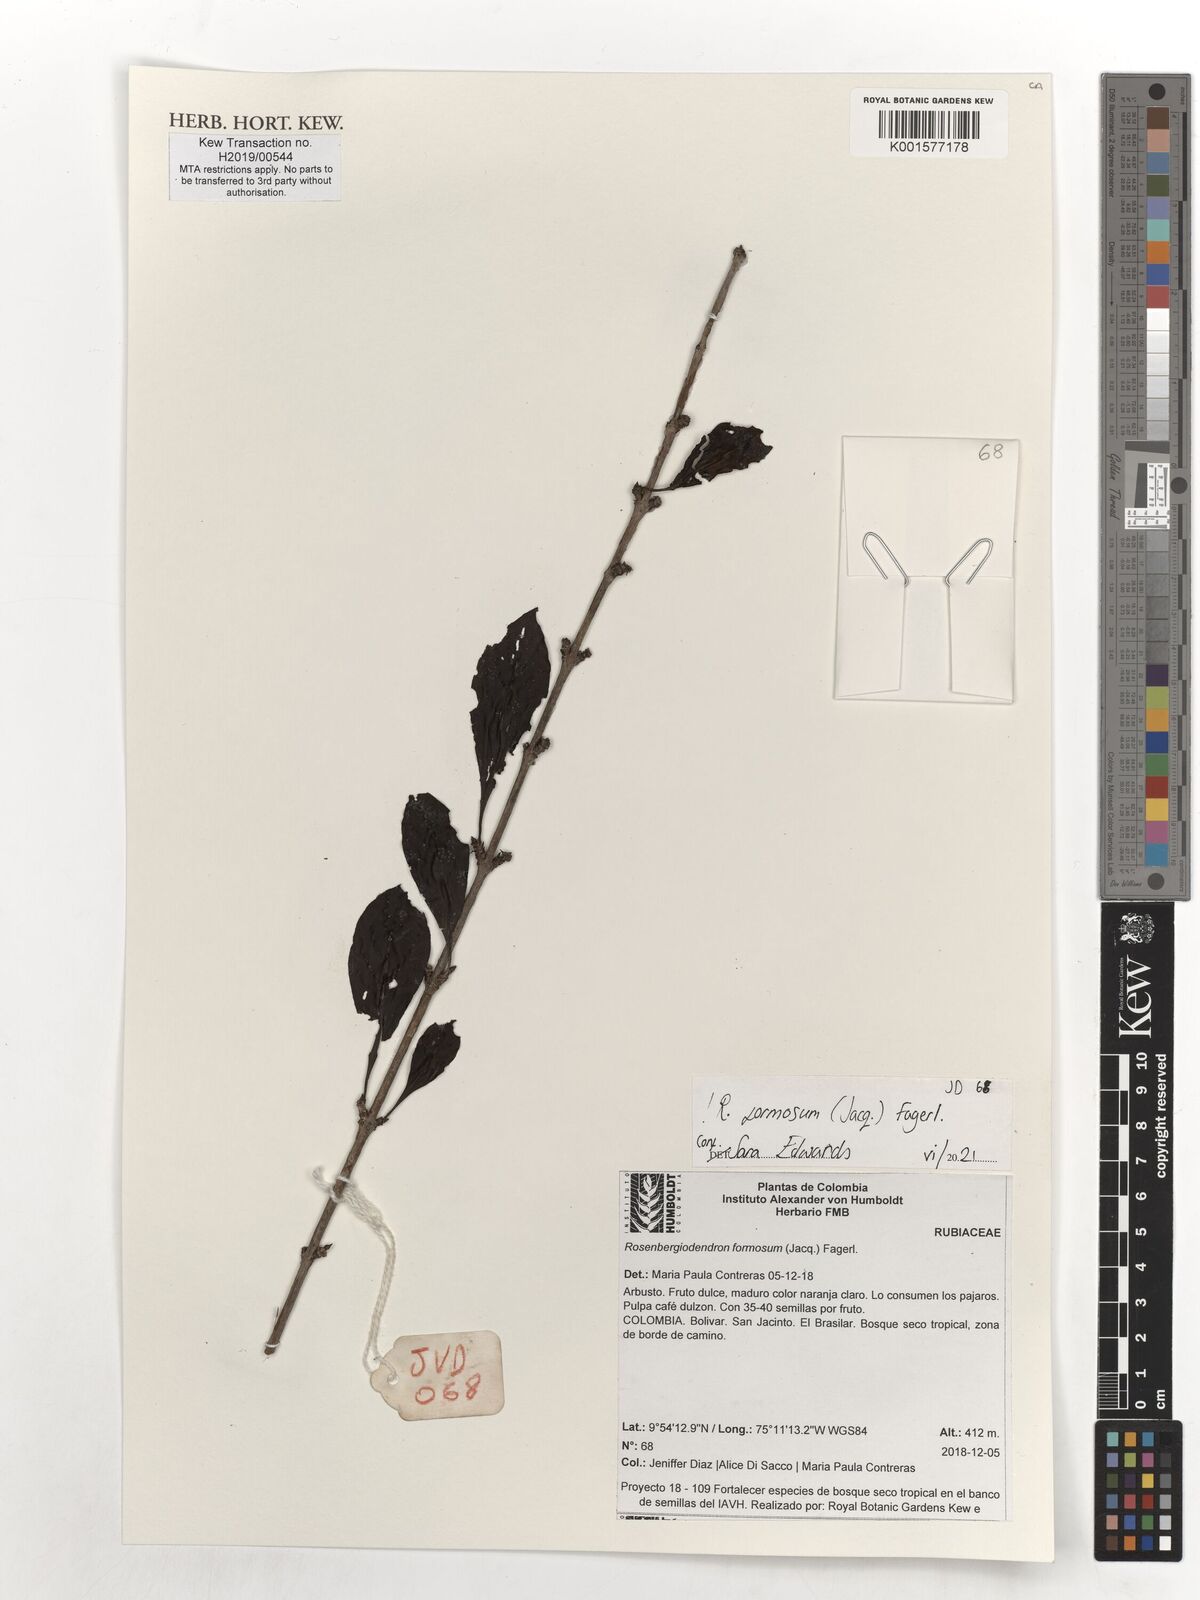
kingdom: Plantae
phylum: Tracheophyta
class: Magnoliopsida
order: Gentianales
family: Rubiaceae
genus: Rosenbergiodendron
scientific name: Rosenbergiodendron formosum
